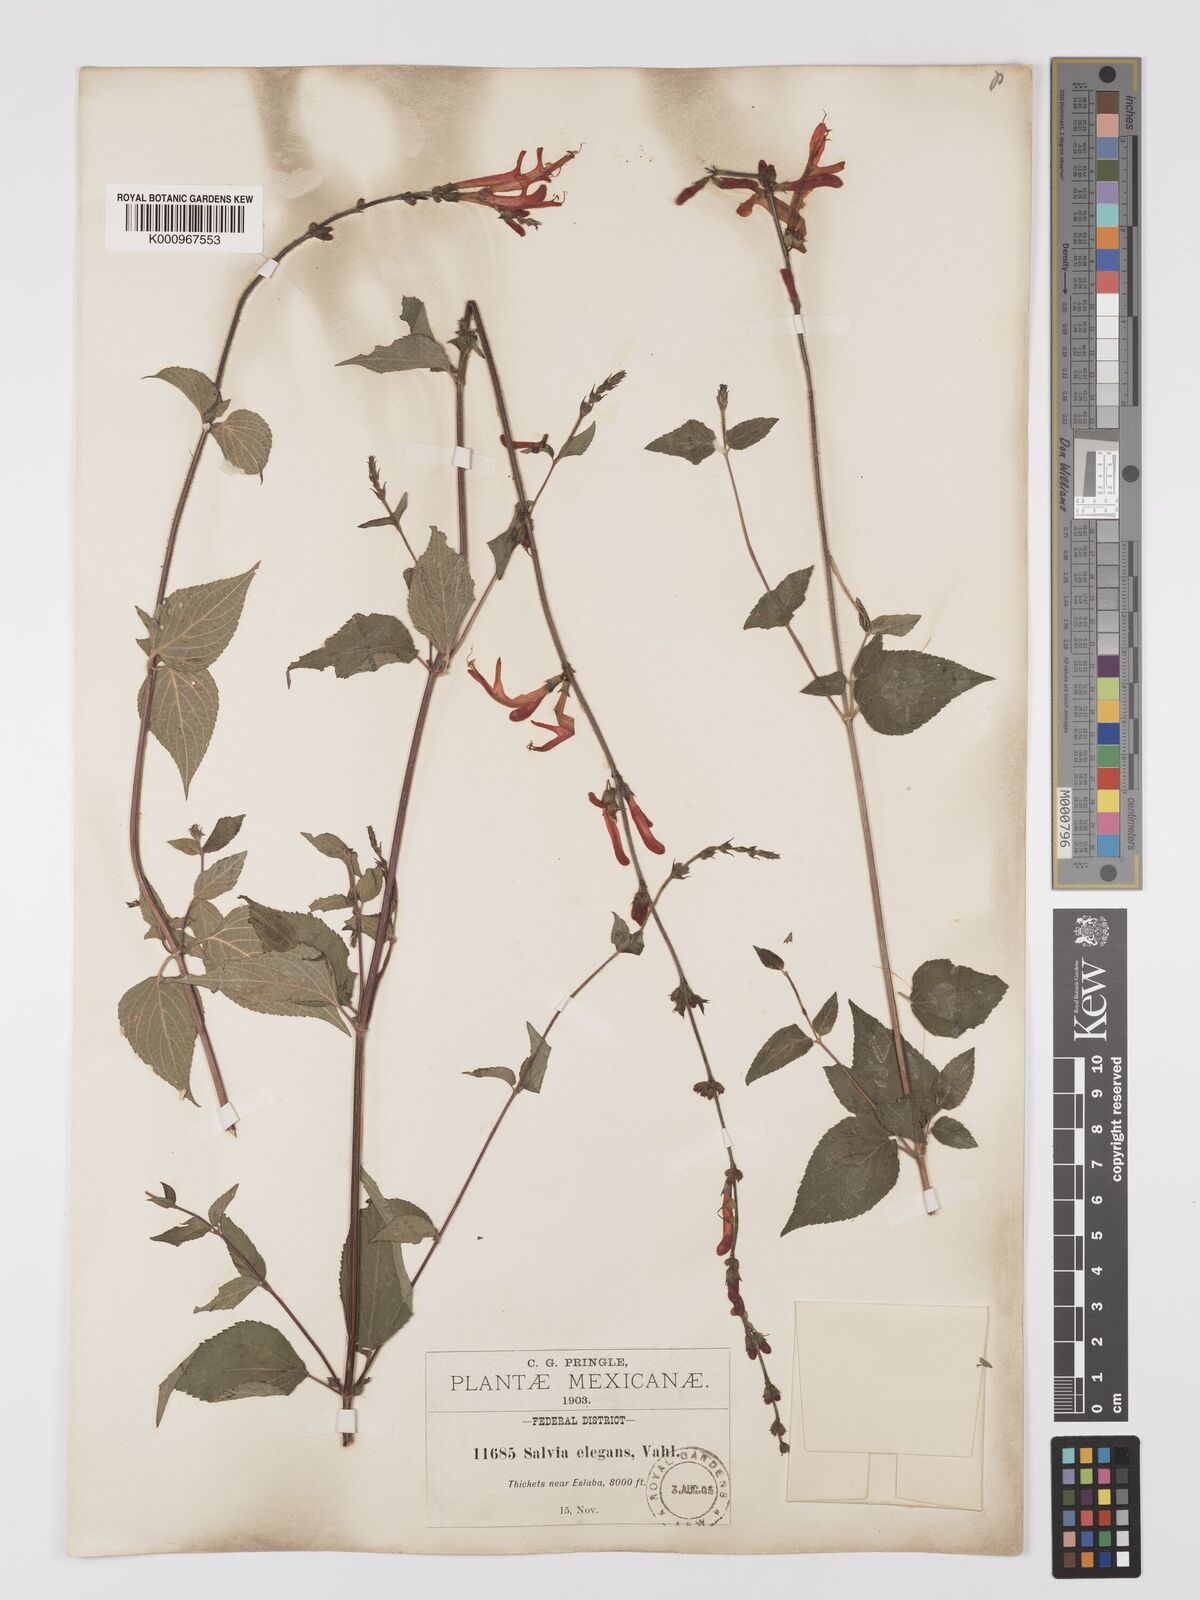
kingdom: Plantae
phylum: Tracheophyta
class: Magnoliopsida
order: Lamiales
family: Lamiaceae
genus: Salvia
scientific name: Salvia elegans
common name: Pineapple sage
